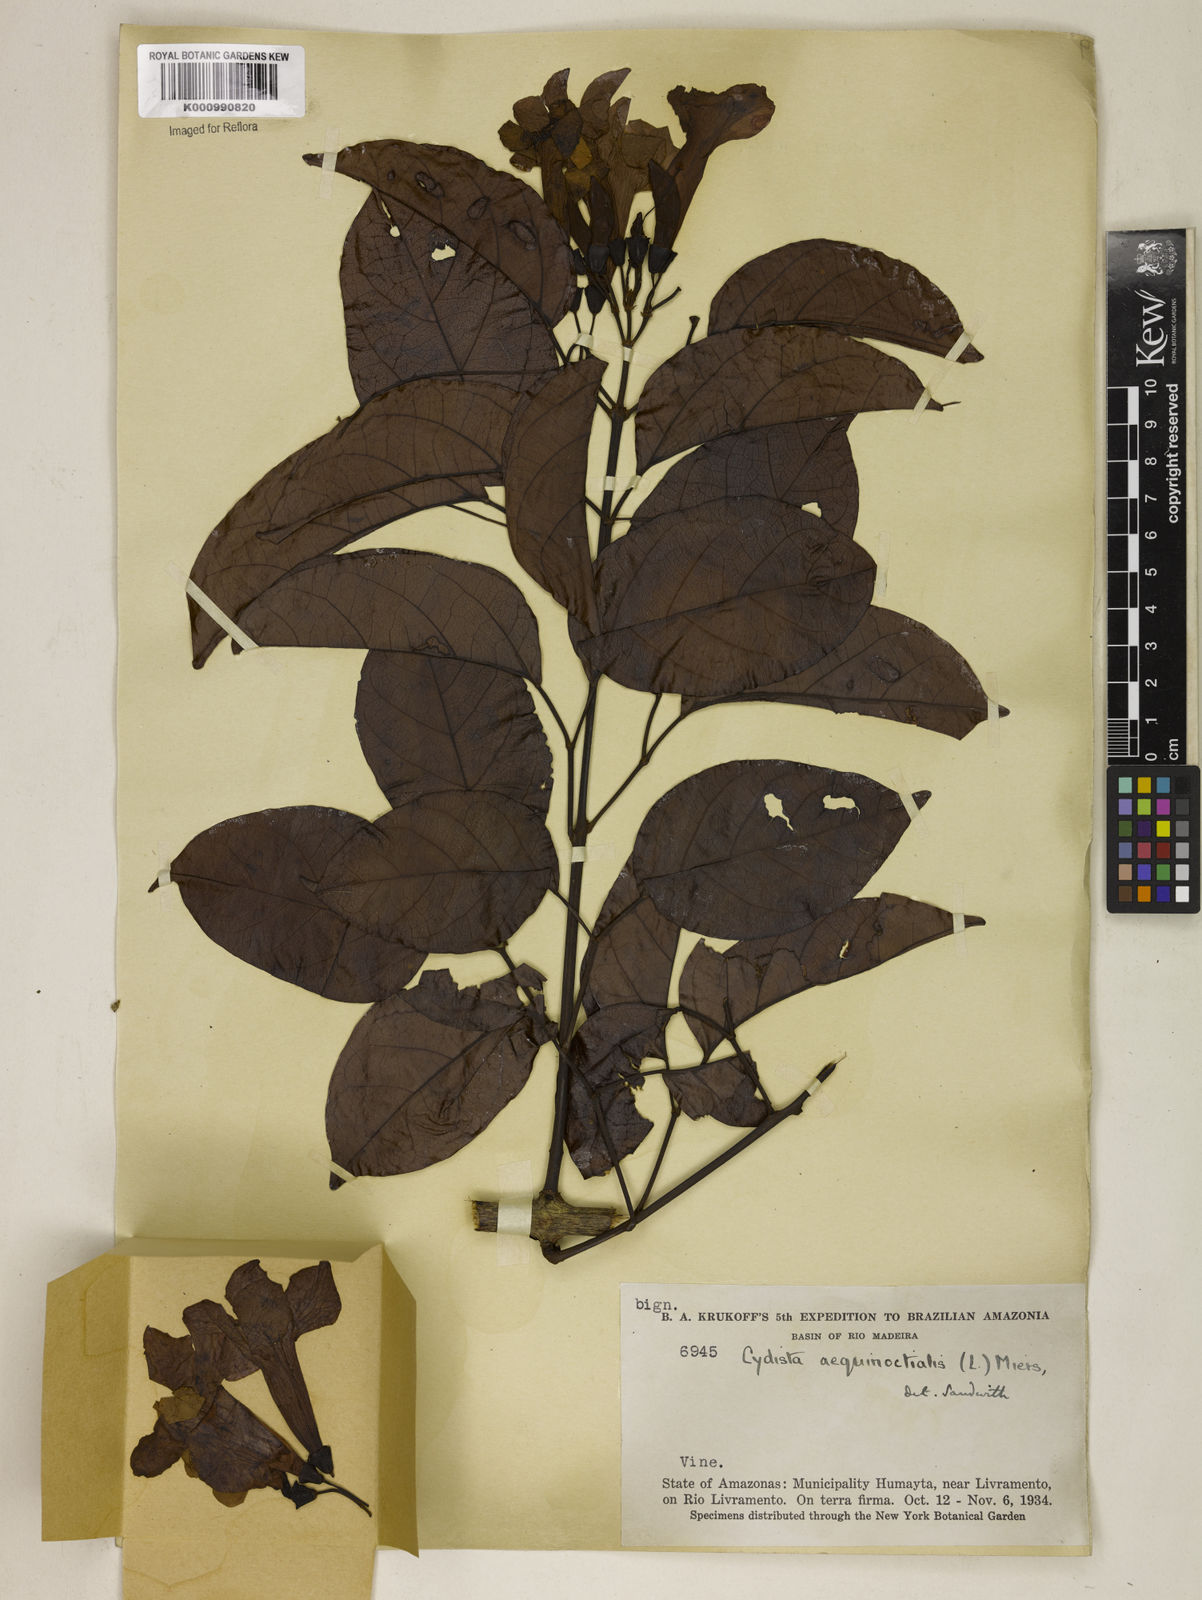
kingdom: Plantae
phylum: Tracheophyta
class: Magnoliopsida
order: Lamiales
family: Bignoniaceae
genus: Bignonia
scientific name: Bignonia aequinoctialis
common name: Garlicvine
